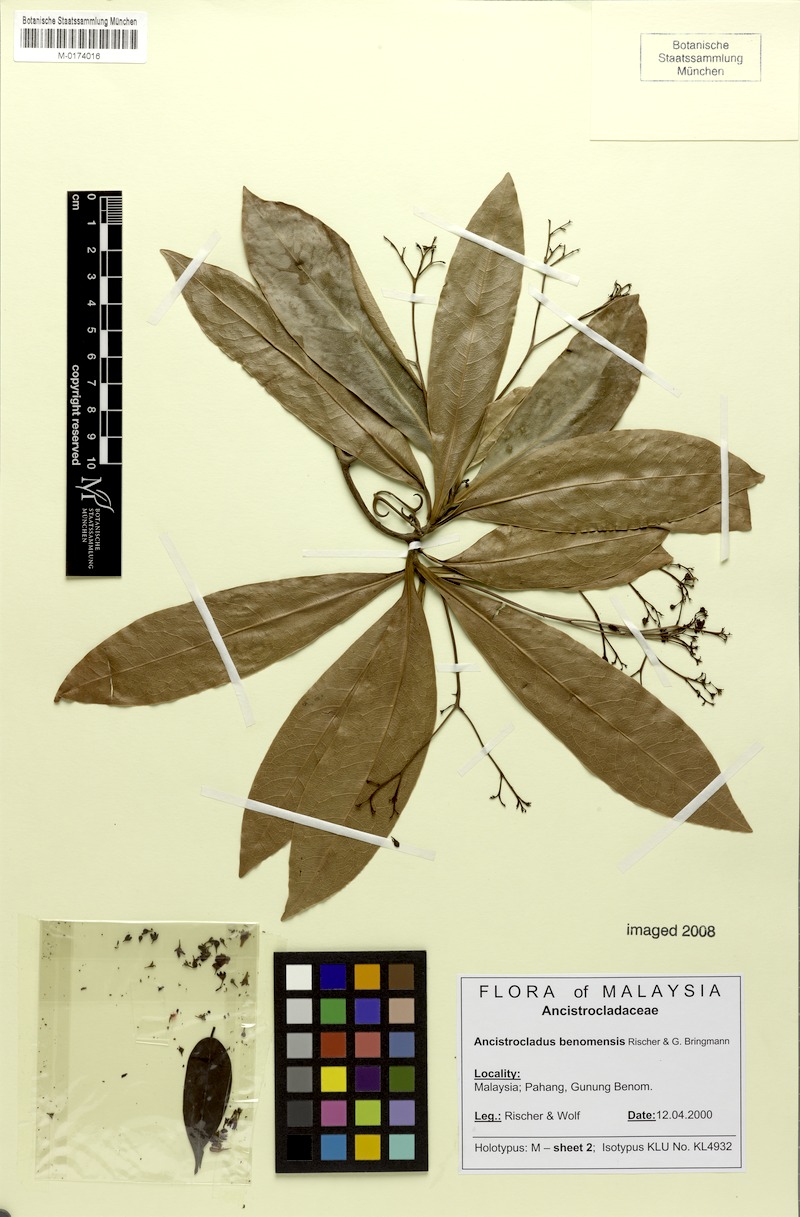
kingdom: Plantae
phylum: Tracheophyta
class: Magnoliopsida
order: Caryophyllales
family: Ancistrocladaceae
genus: Ancistrocladus
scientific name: Ancistrocladus tectorius
